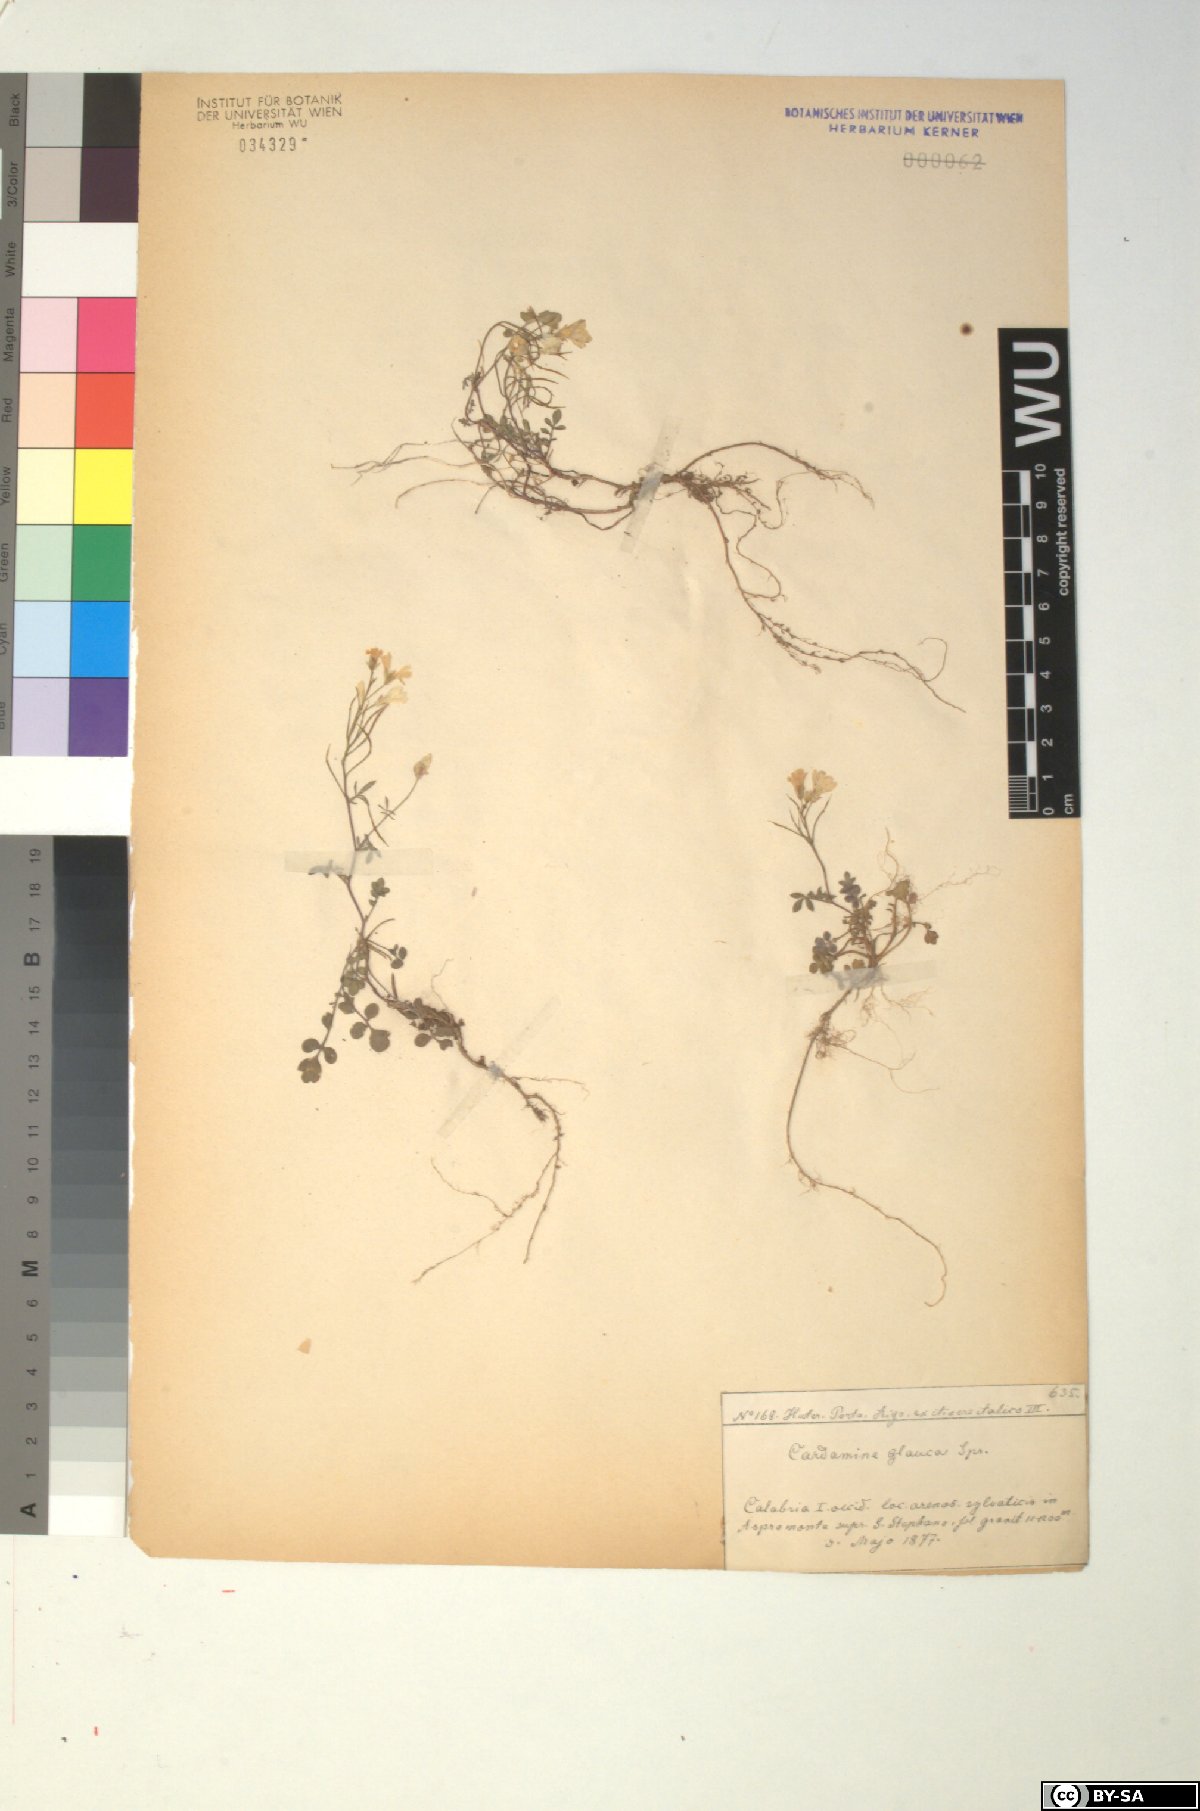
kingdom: Plantae
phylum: Tracheophyta
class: Magnoliopsida
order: Brassicales
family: Brassicaceae
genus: Cardamine
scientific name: Cardamine glauca
